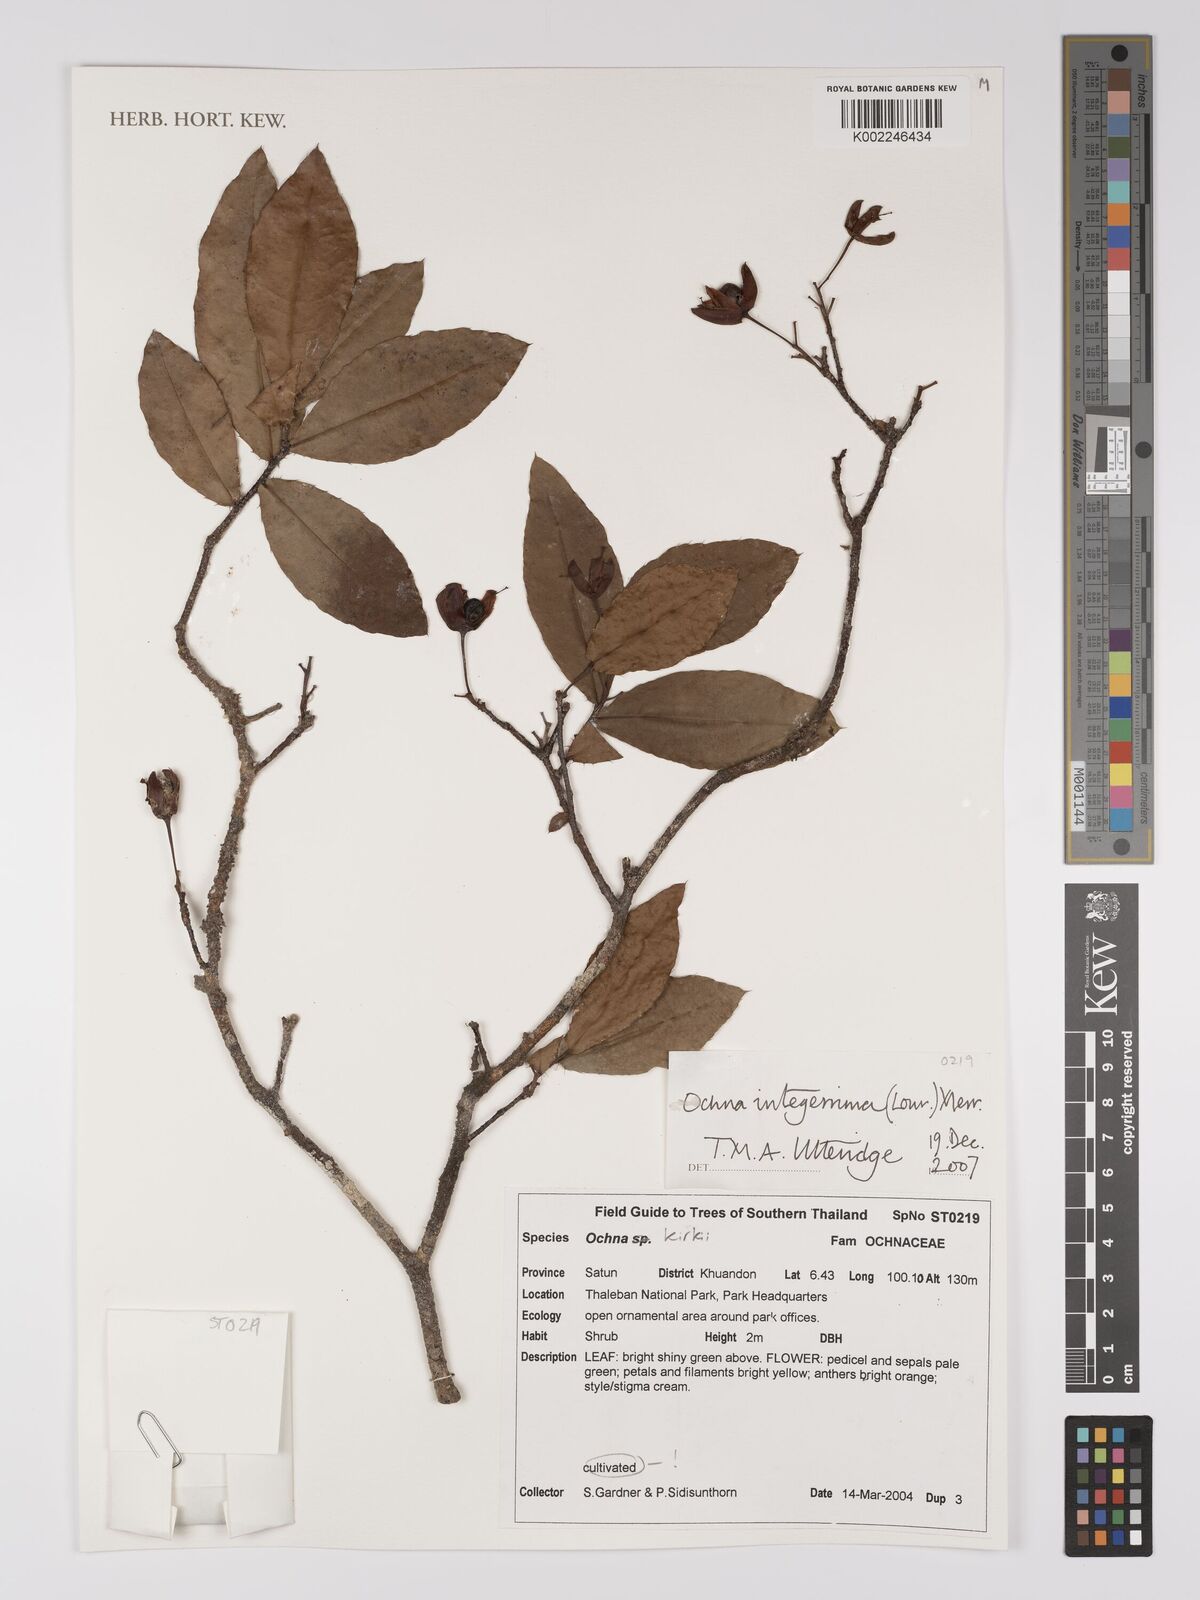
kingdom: Plantae
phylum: Tracheophyta
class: Magnoliopsida
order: Malpighiales
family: Ochnaceae
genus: Ochna
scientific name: Ochna
